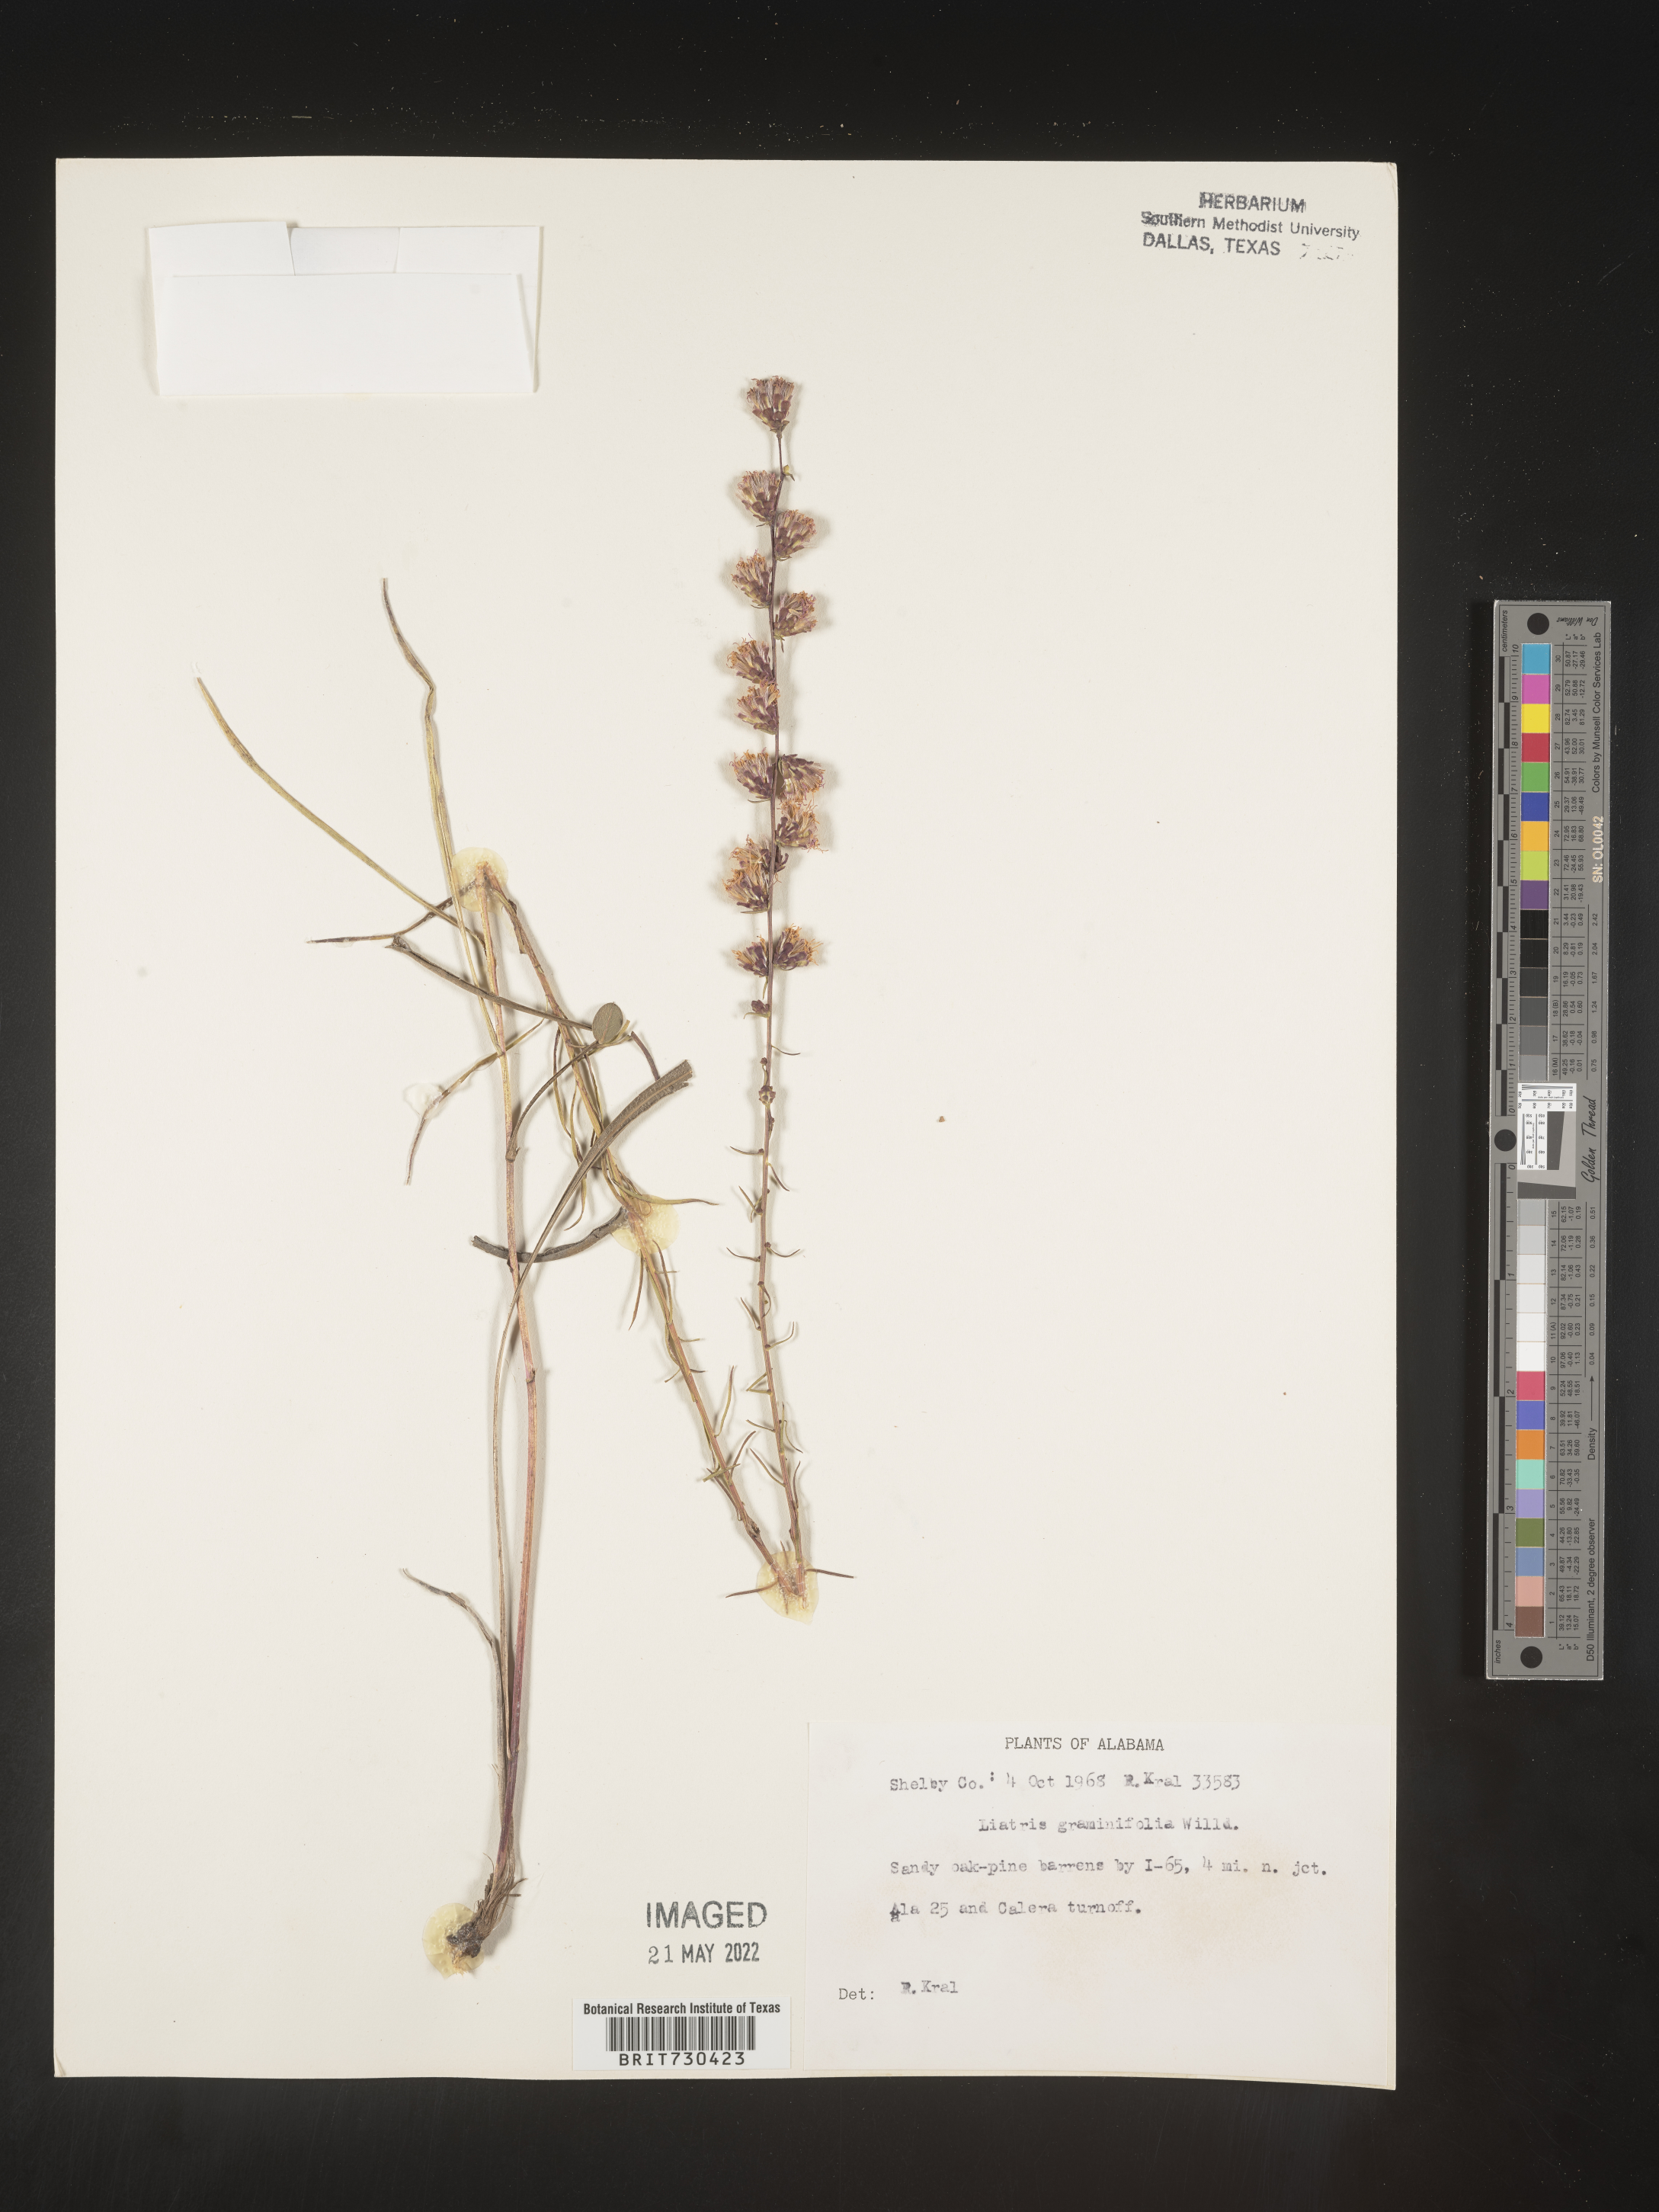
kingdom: Plantae
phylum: Tracheophyta
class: Magnoliopsida
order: Asterales
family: Asteraceae
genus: Liatris
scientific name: Liatris elegantula
